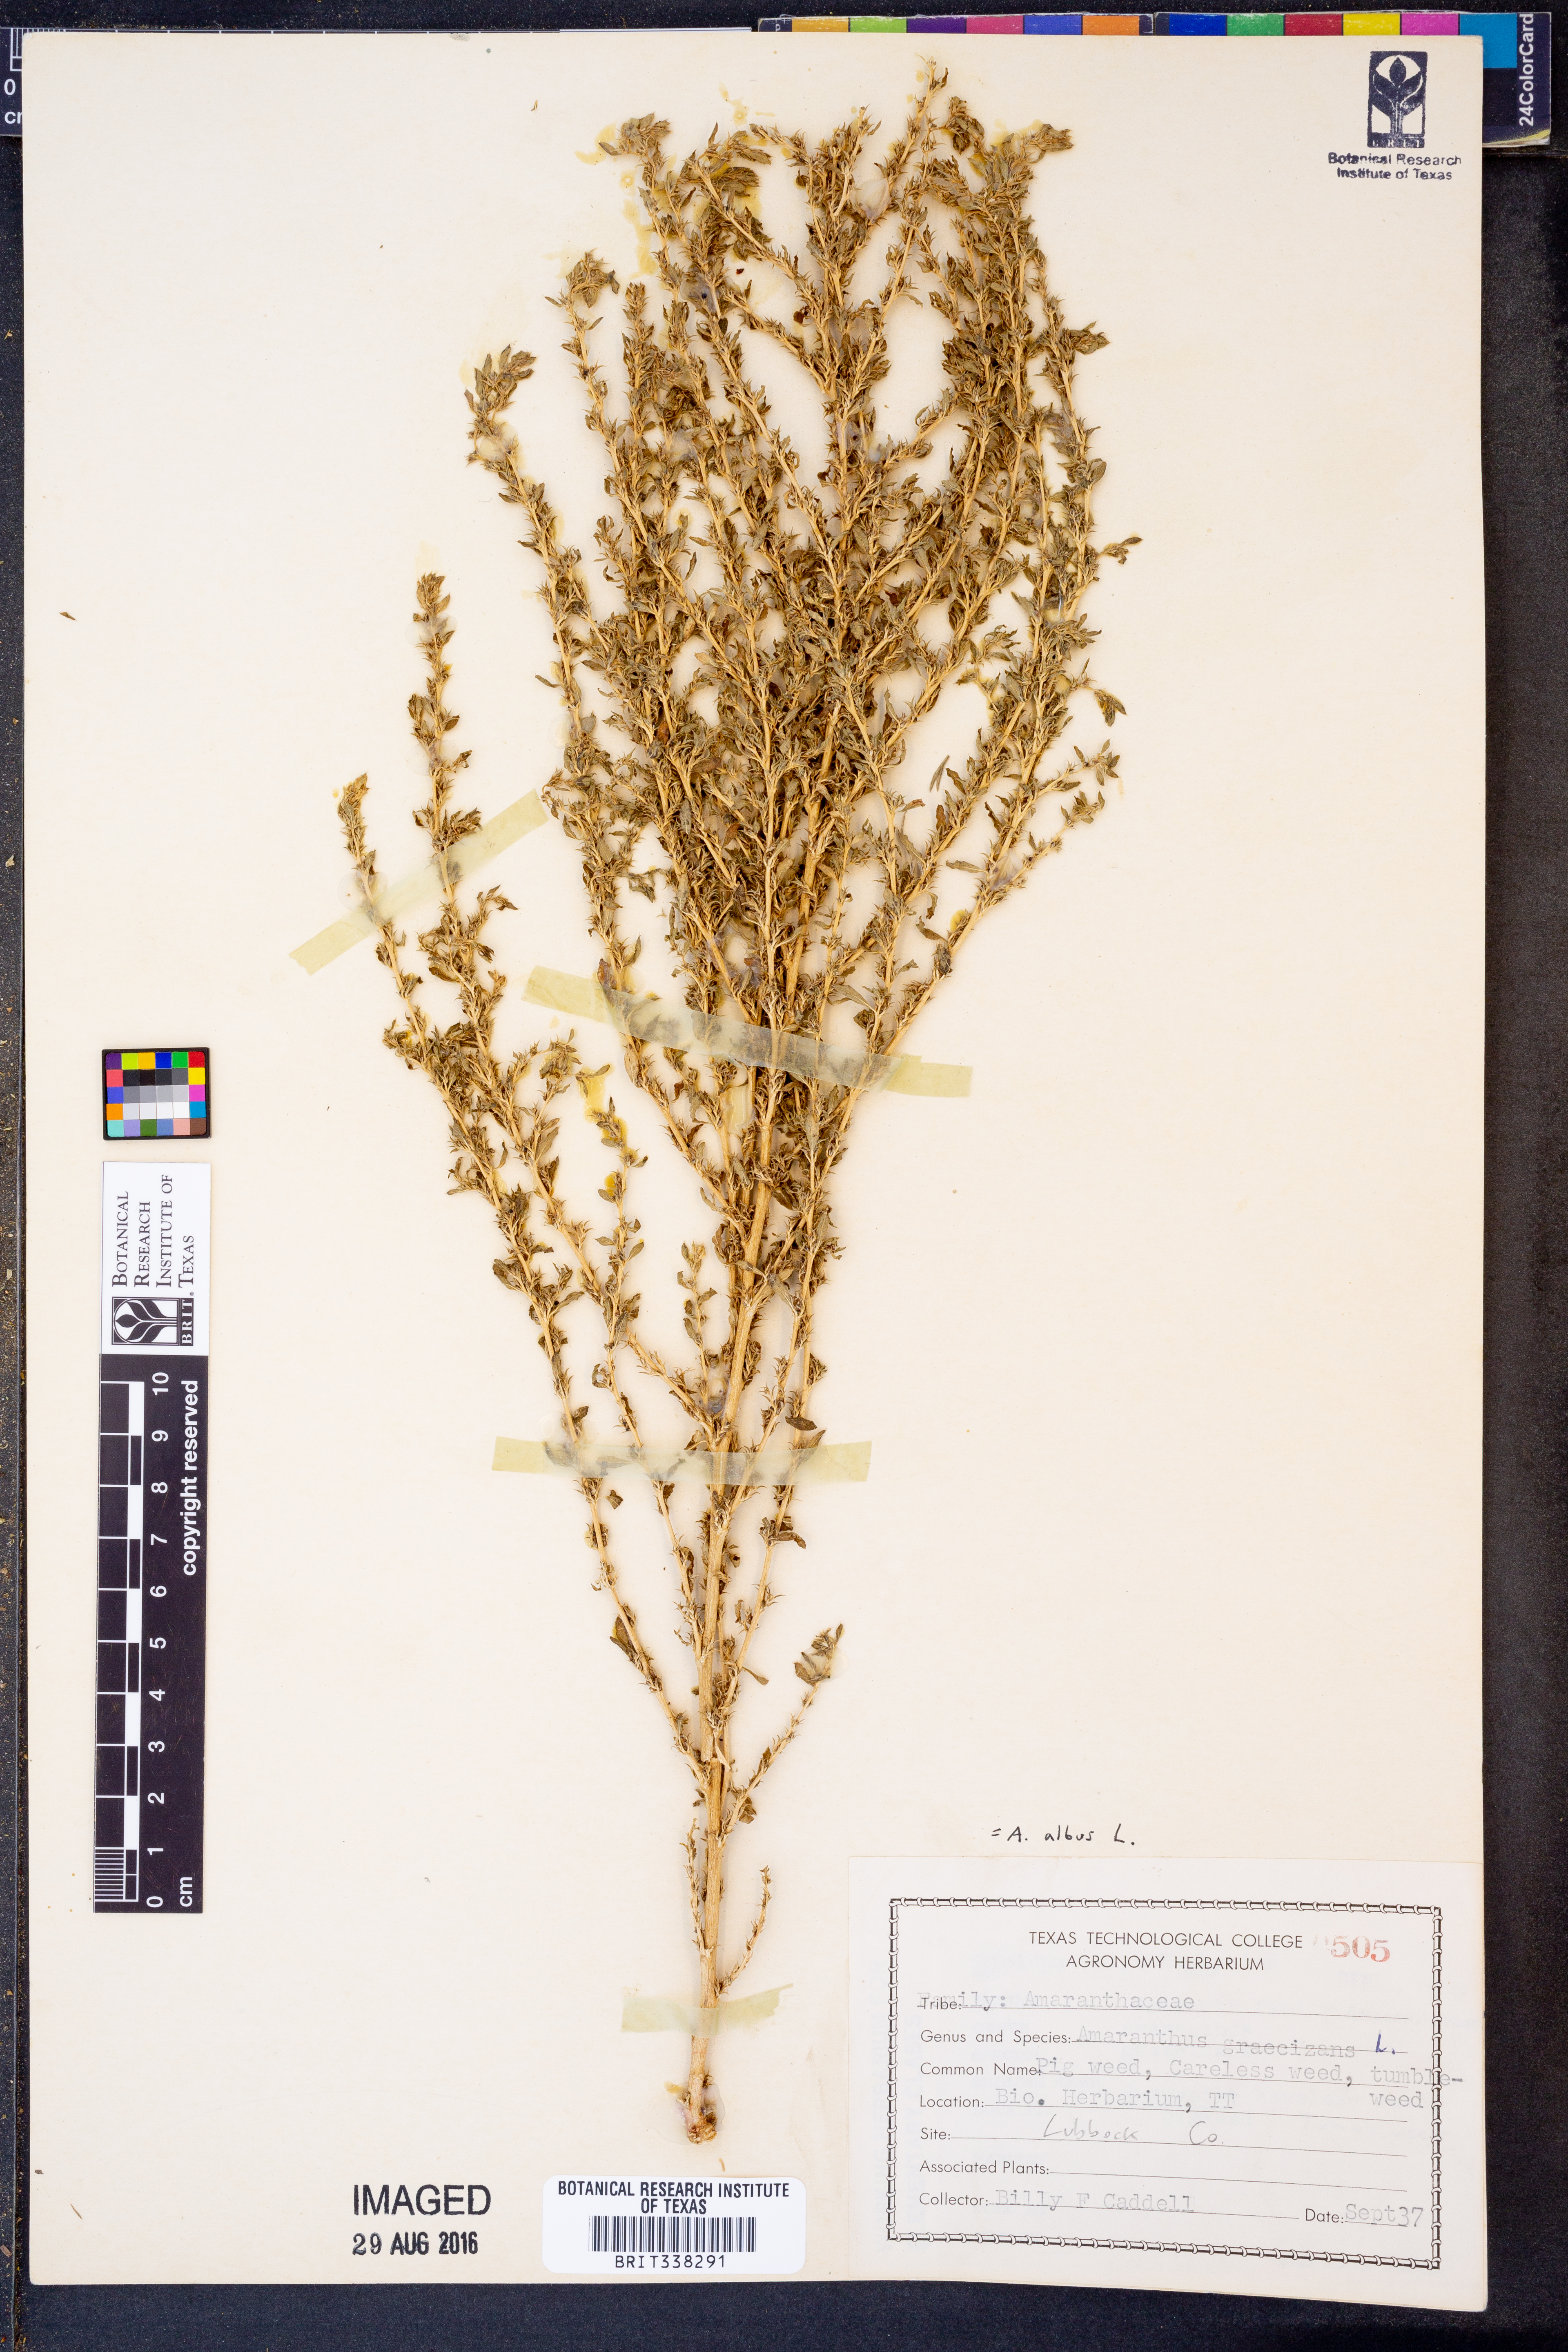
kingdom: Plantae
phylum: Tracheophyta
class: Magnoliopsida
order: Caryophyllales
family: Amaranthaceae
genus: Amaranthus
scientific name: Amaranthus albus
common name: White pigweed
